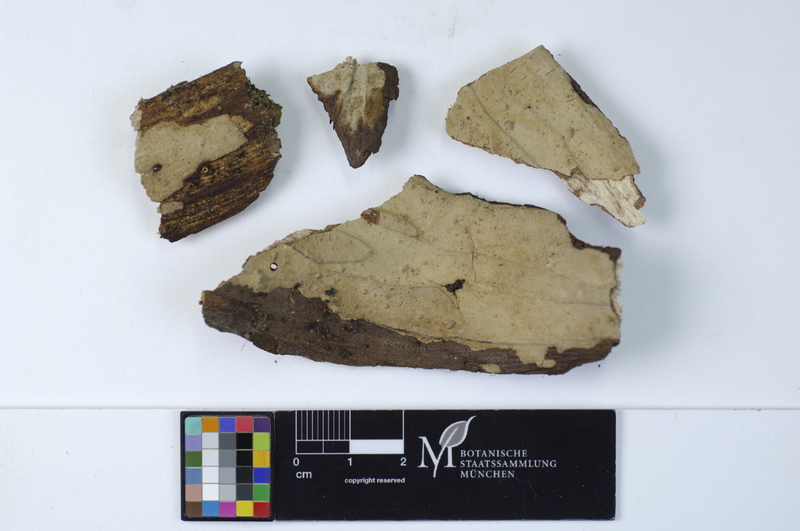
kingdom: Plantae
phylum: Tracheophyta
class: Pinopsida
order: Pinales
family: Taxaceae
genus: Taxus
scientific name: Taxus baccata
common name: Yew
